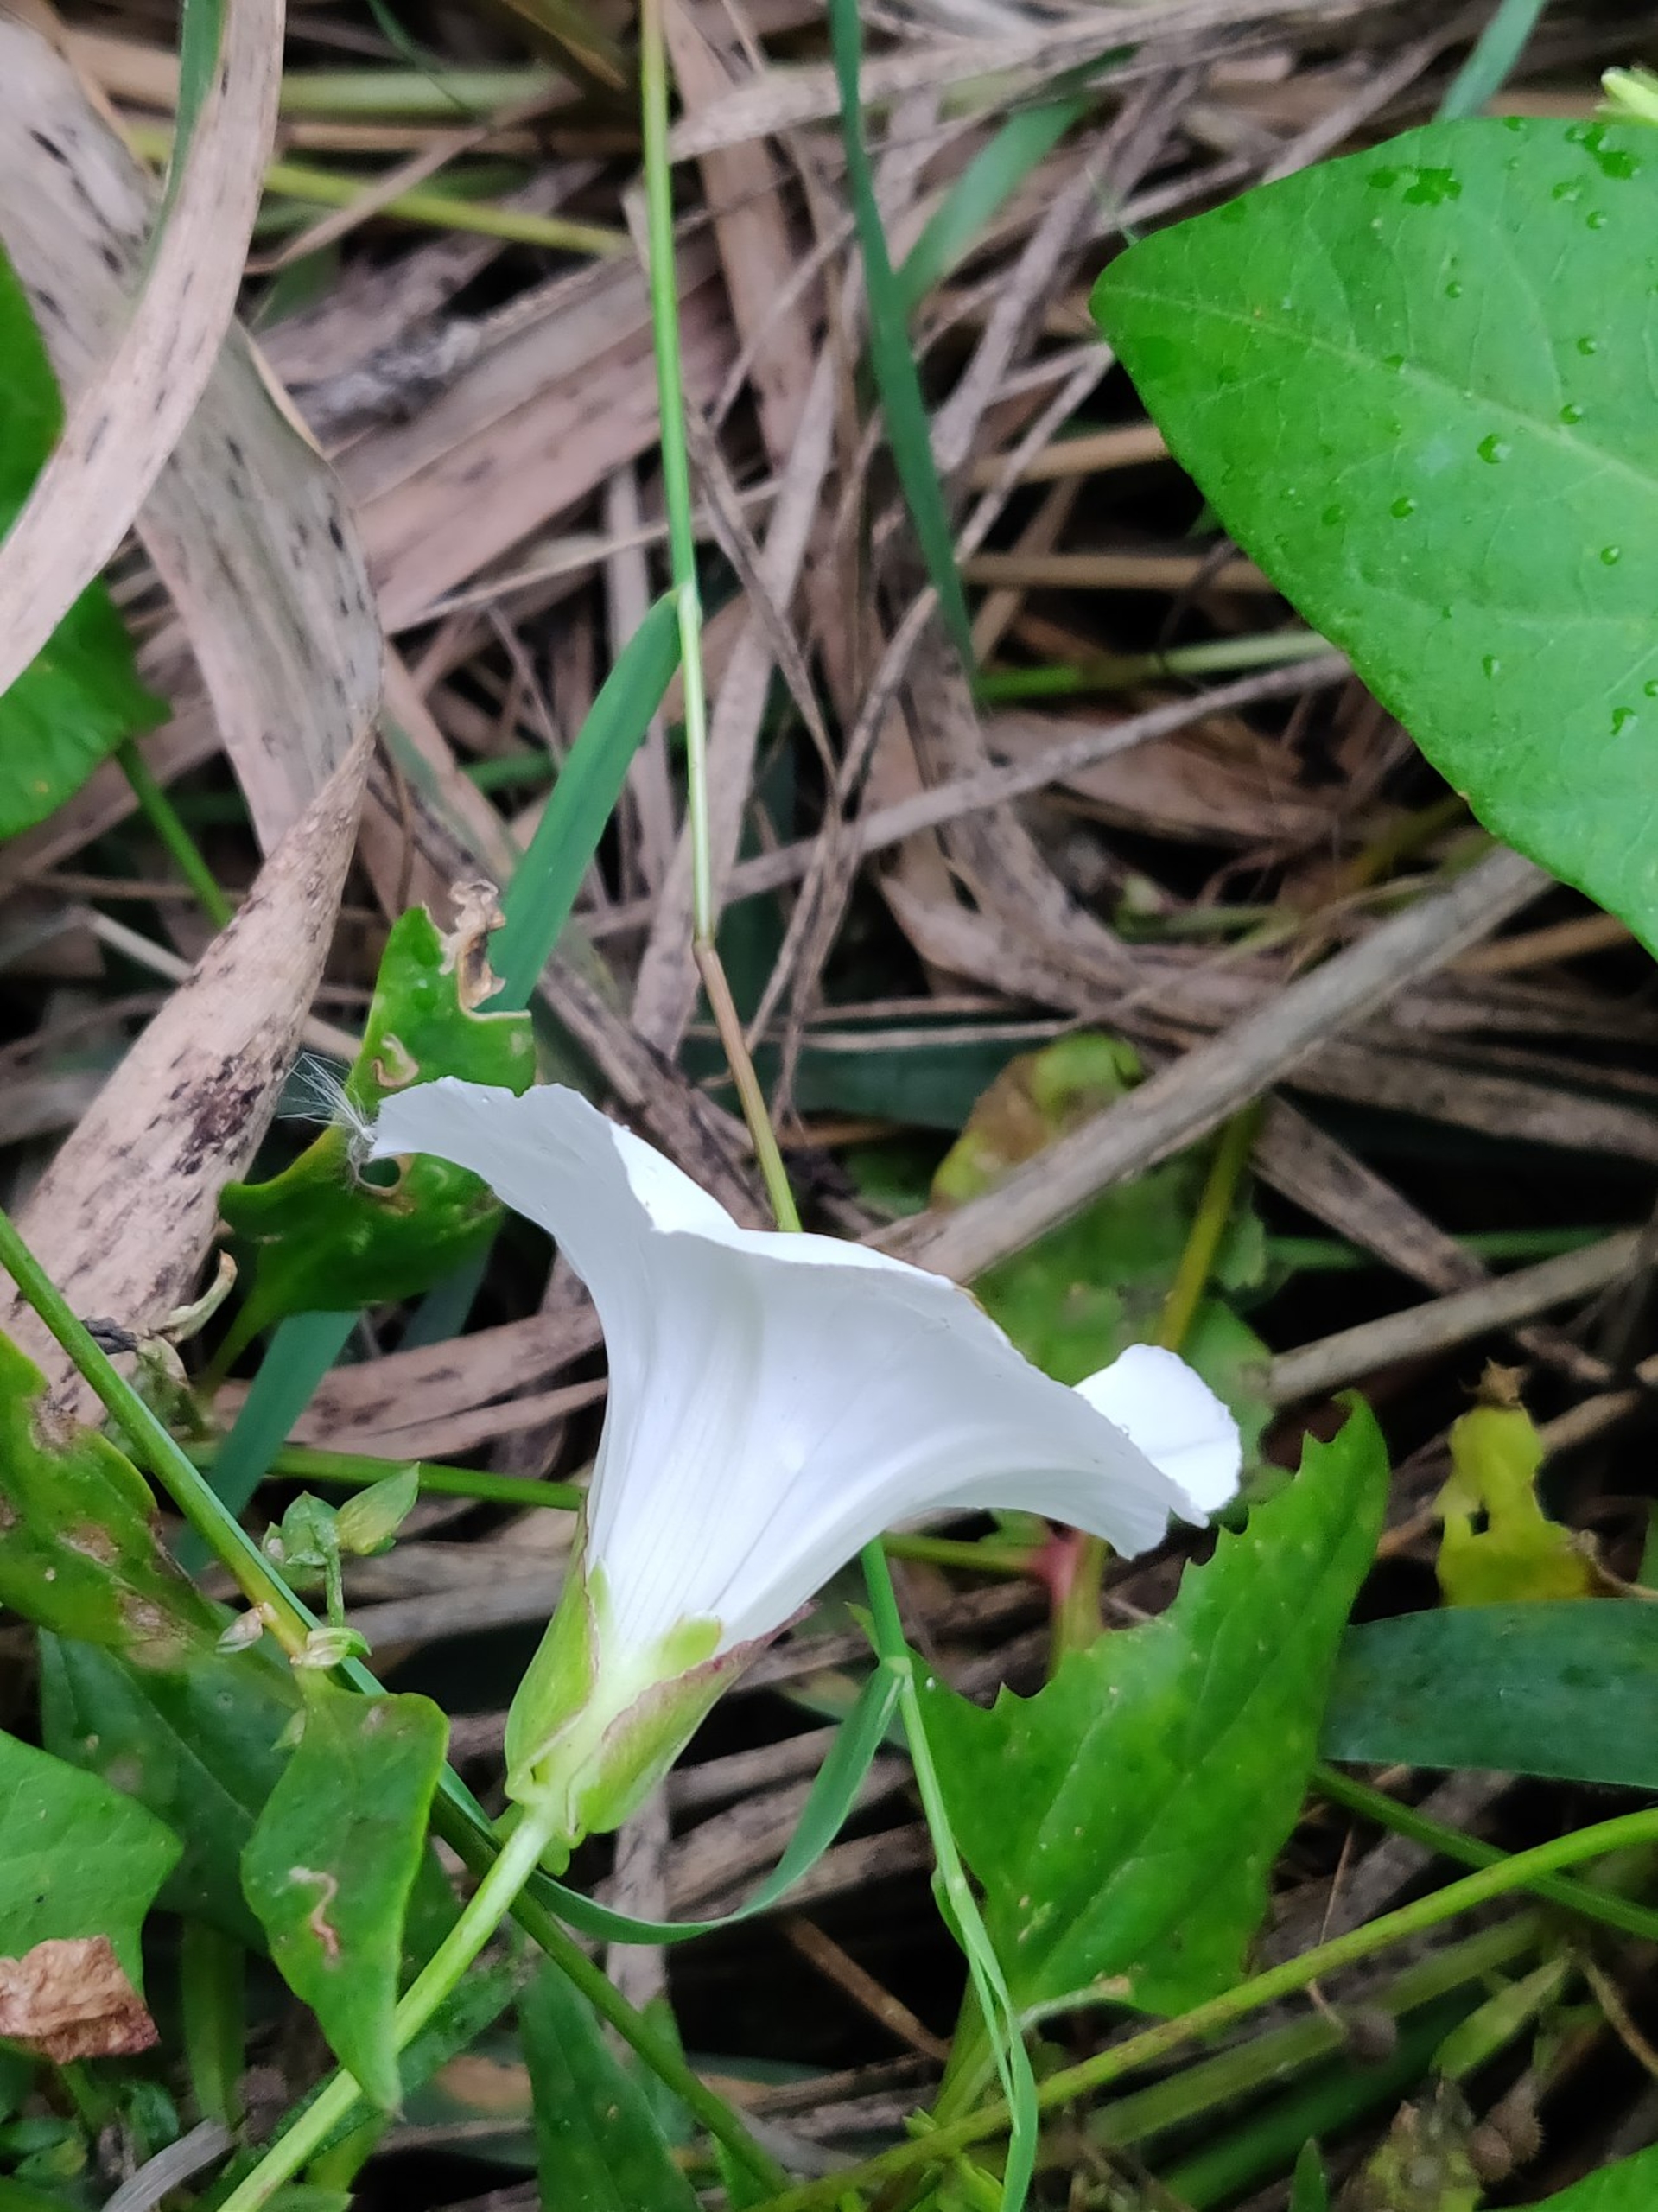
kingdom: Plantae
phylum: Tracheophyta
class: Magnoliopsida
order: Solanales
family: Convolvulaceae
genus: Calystegia
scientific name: Calystegia sepium
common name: Gærde-snerle
